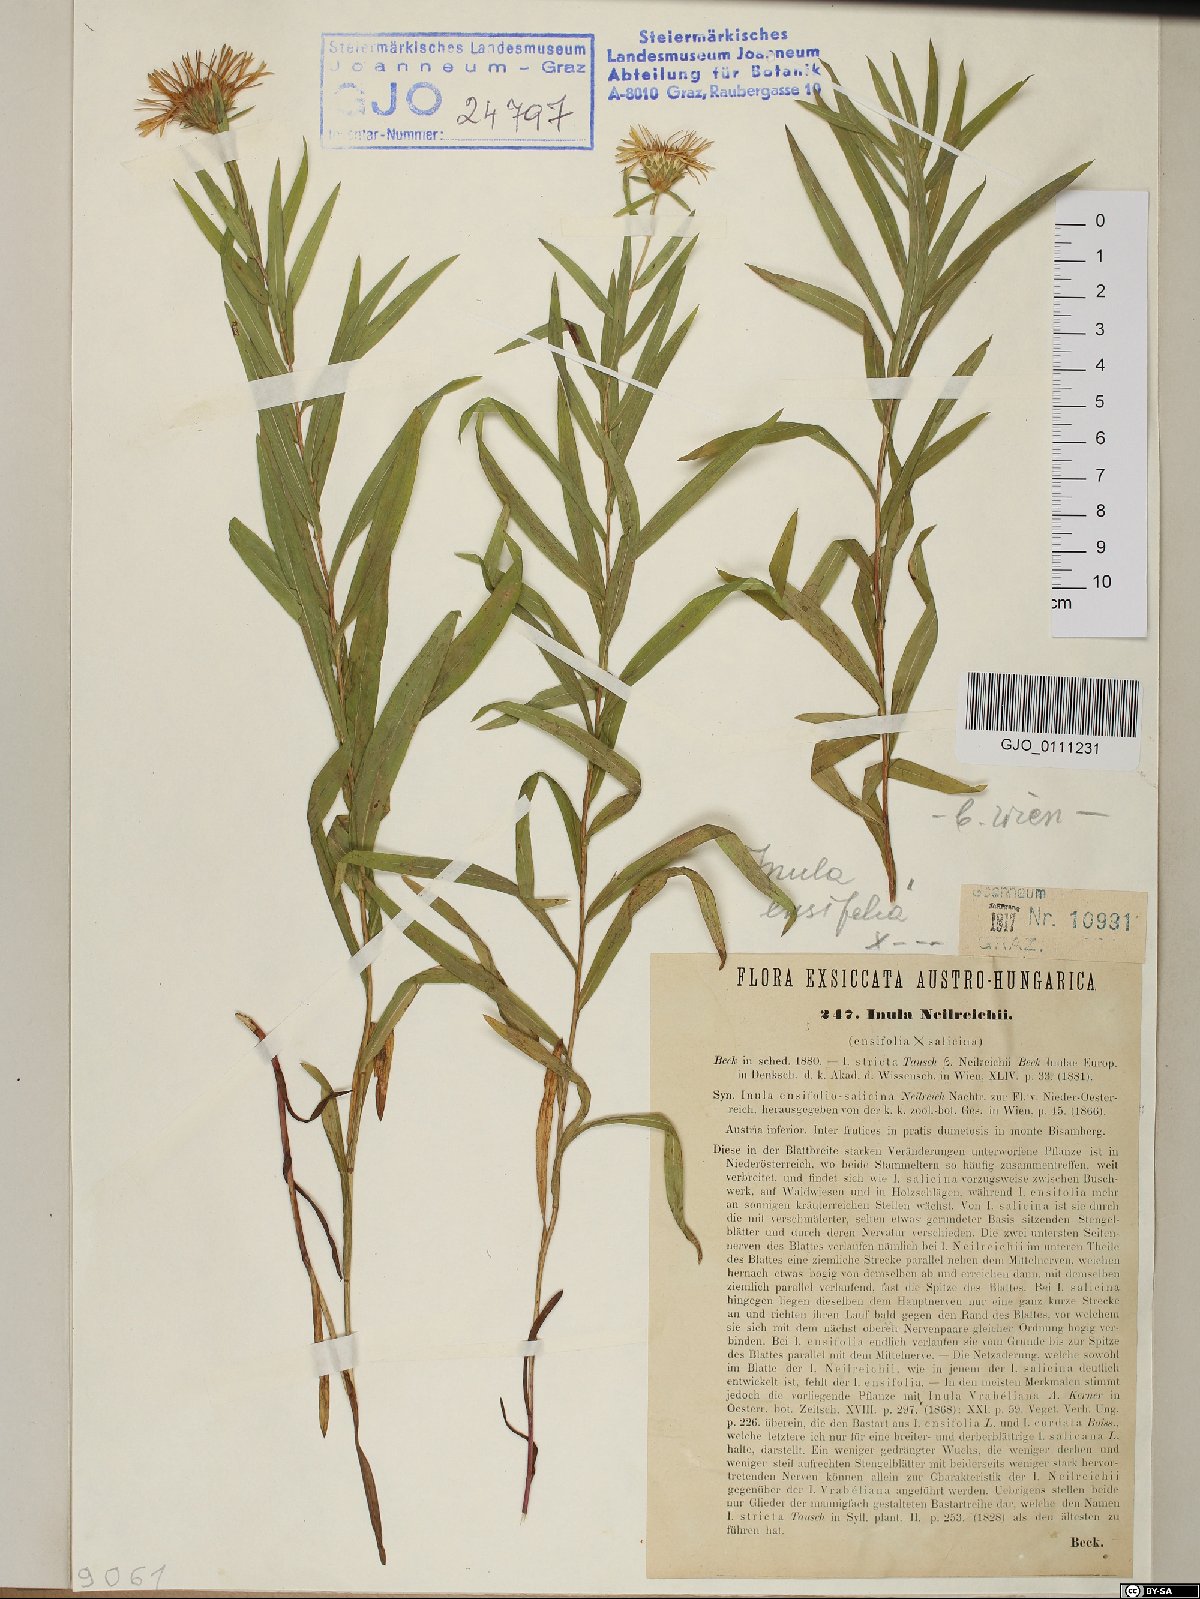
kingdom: Plantae
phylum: Tracheophyta
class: Magnoliopsida
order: Asterales
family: Asteraceae
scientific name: Asteraceae
